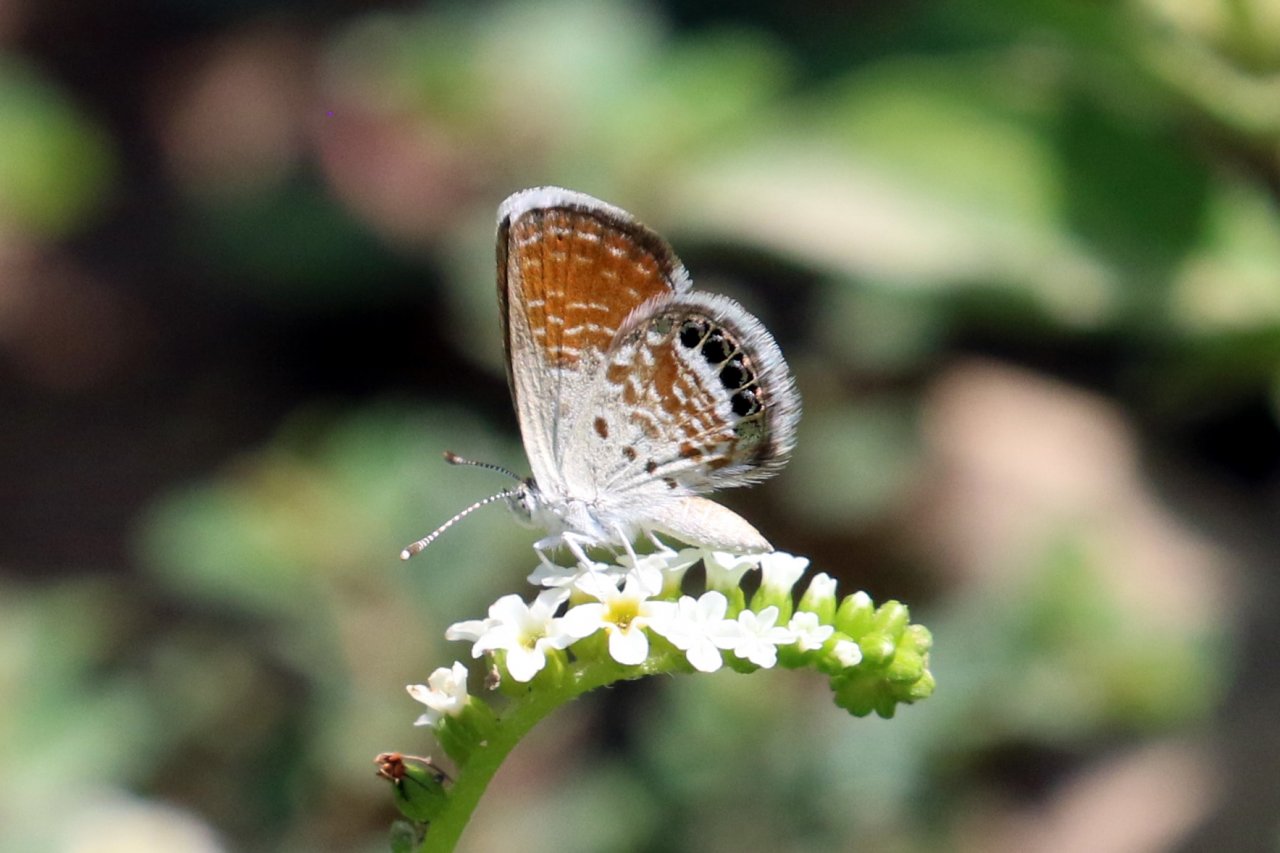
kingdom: Animalia
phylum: Arthropoda
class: Insecta
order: Lepidoptera
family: Lycaenidae
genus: Brephidium
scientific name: Brephidium exilis
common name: Western Pygmy-Blue
